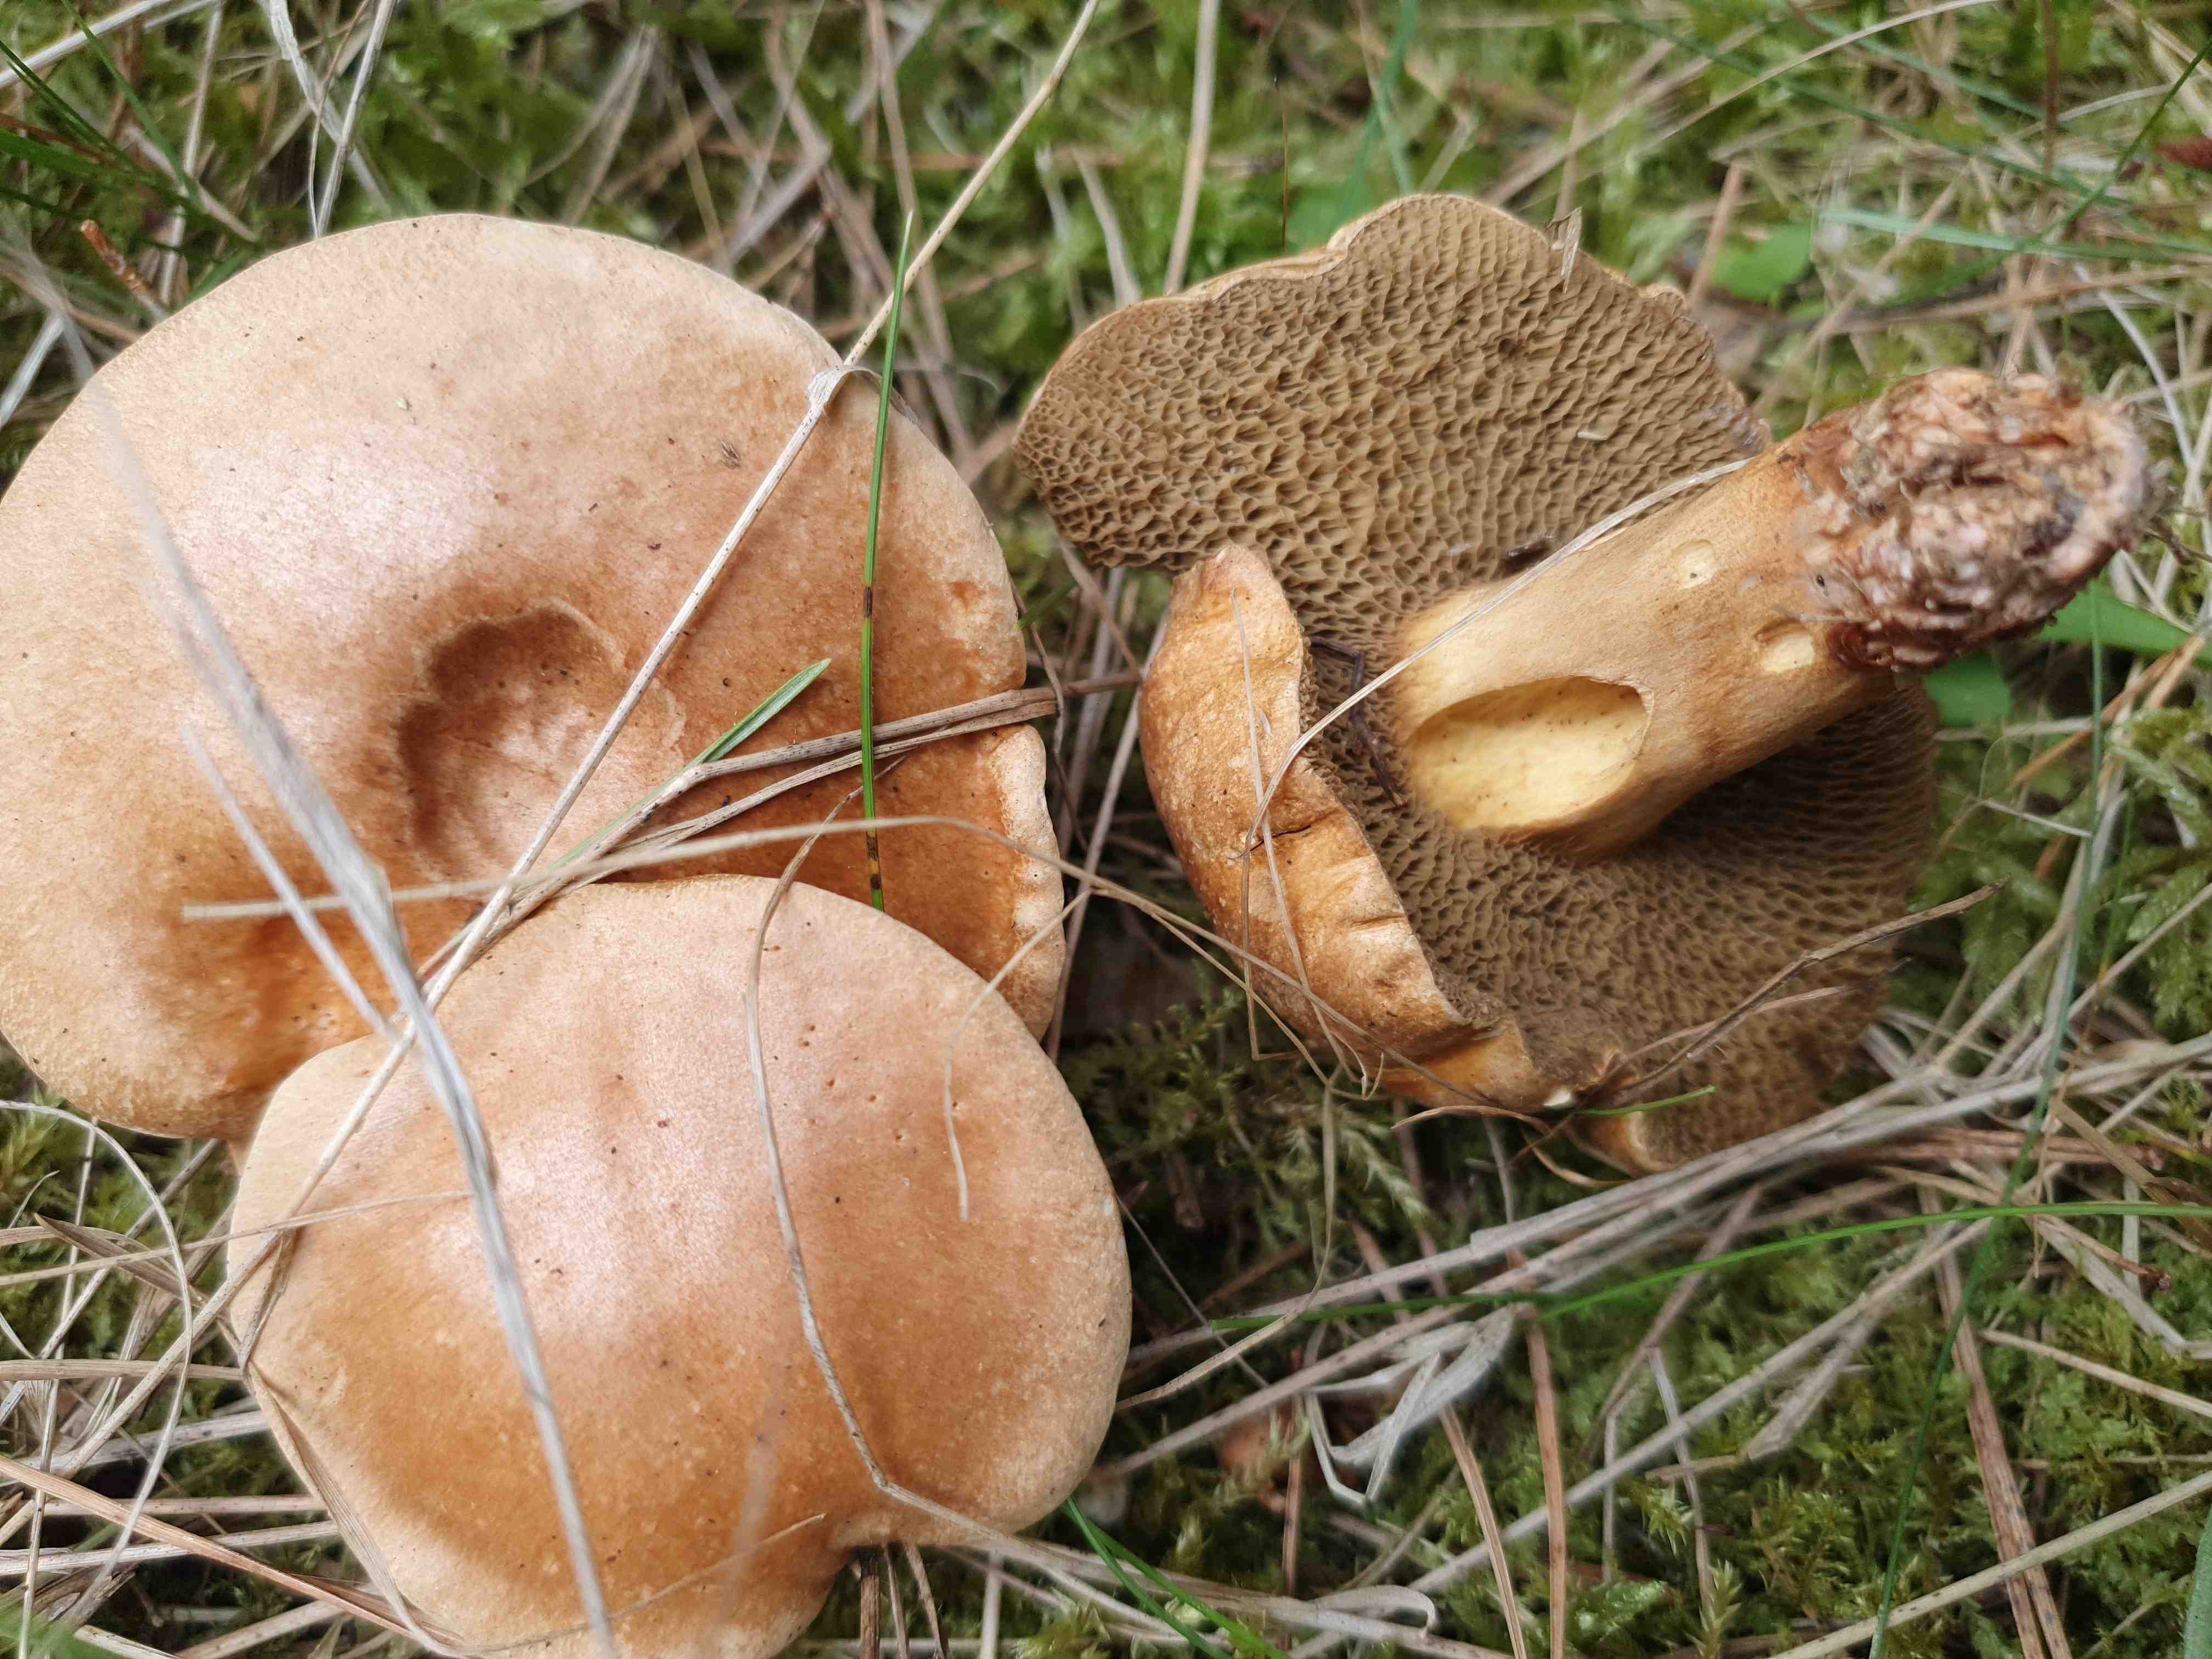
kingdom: Fungi
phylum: Basidiomycota
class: Agaricomycetes
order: Boletales
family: Suillaceae
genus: Suillus
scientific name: Suillus bovinus
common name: grovporet slimrørhat
